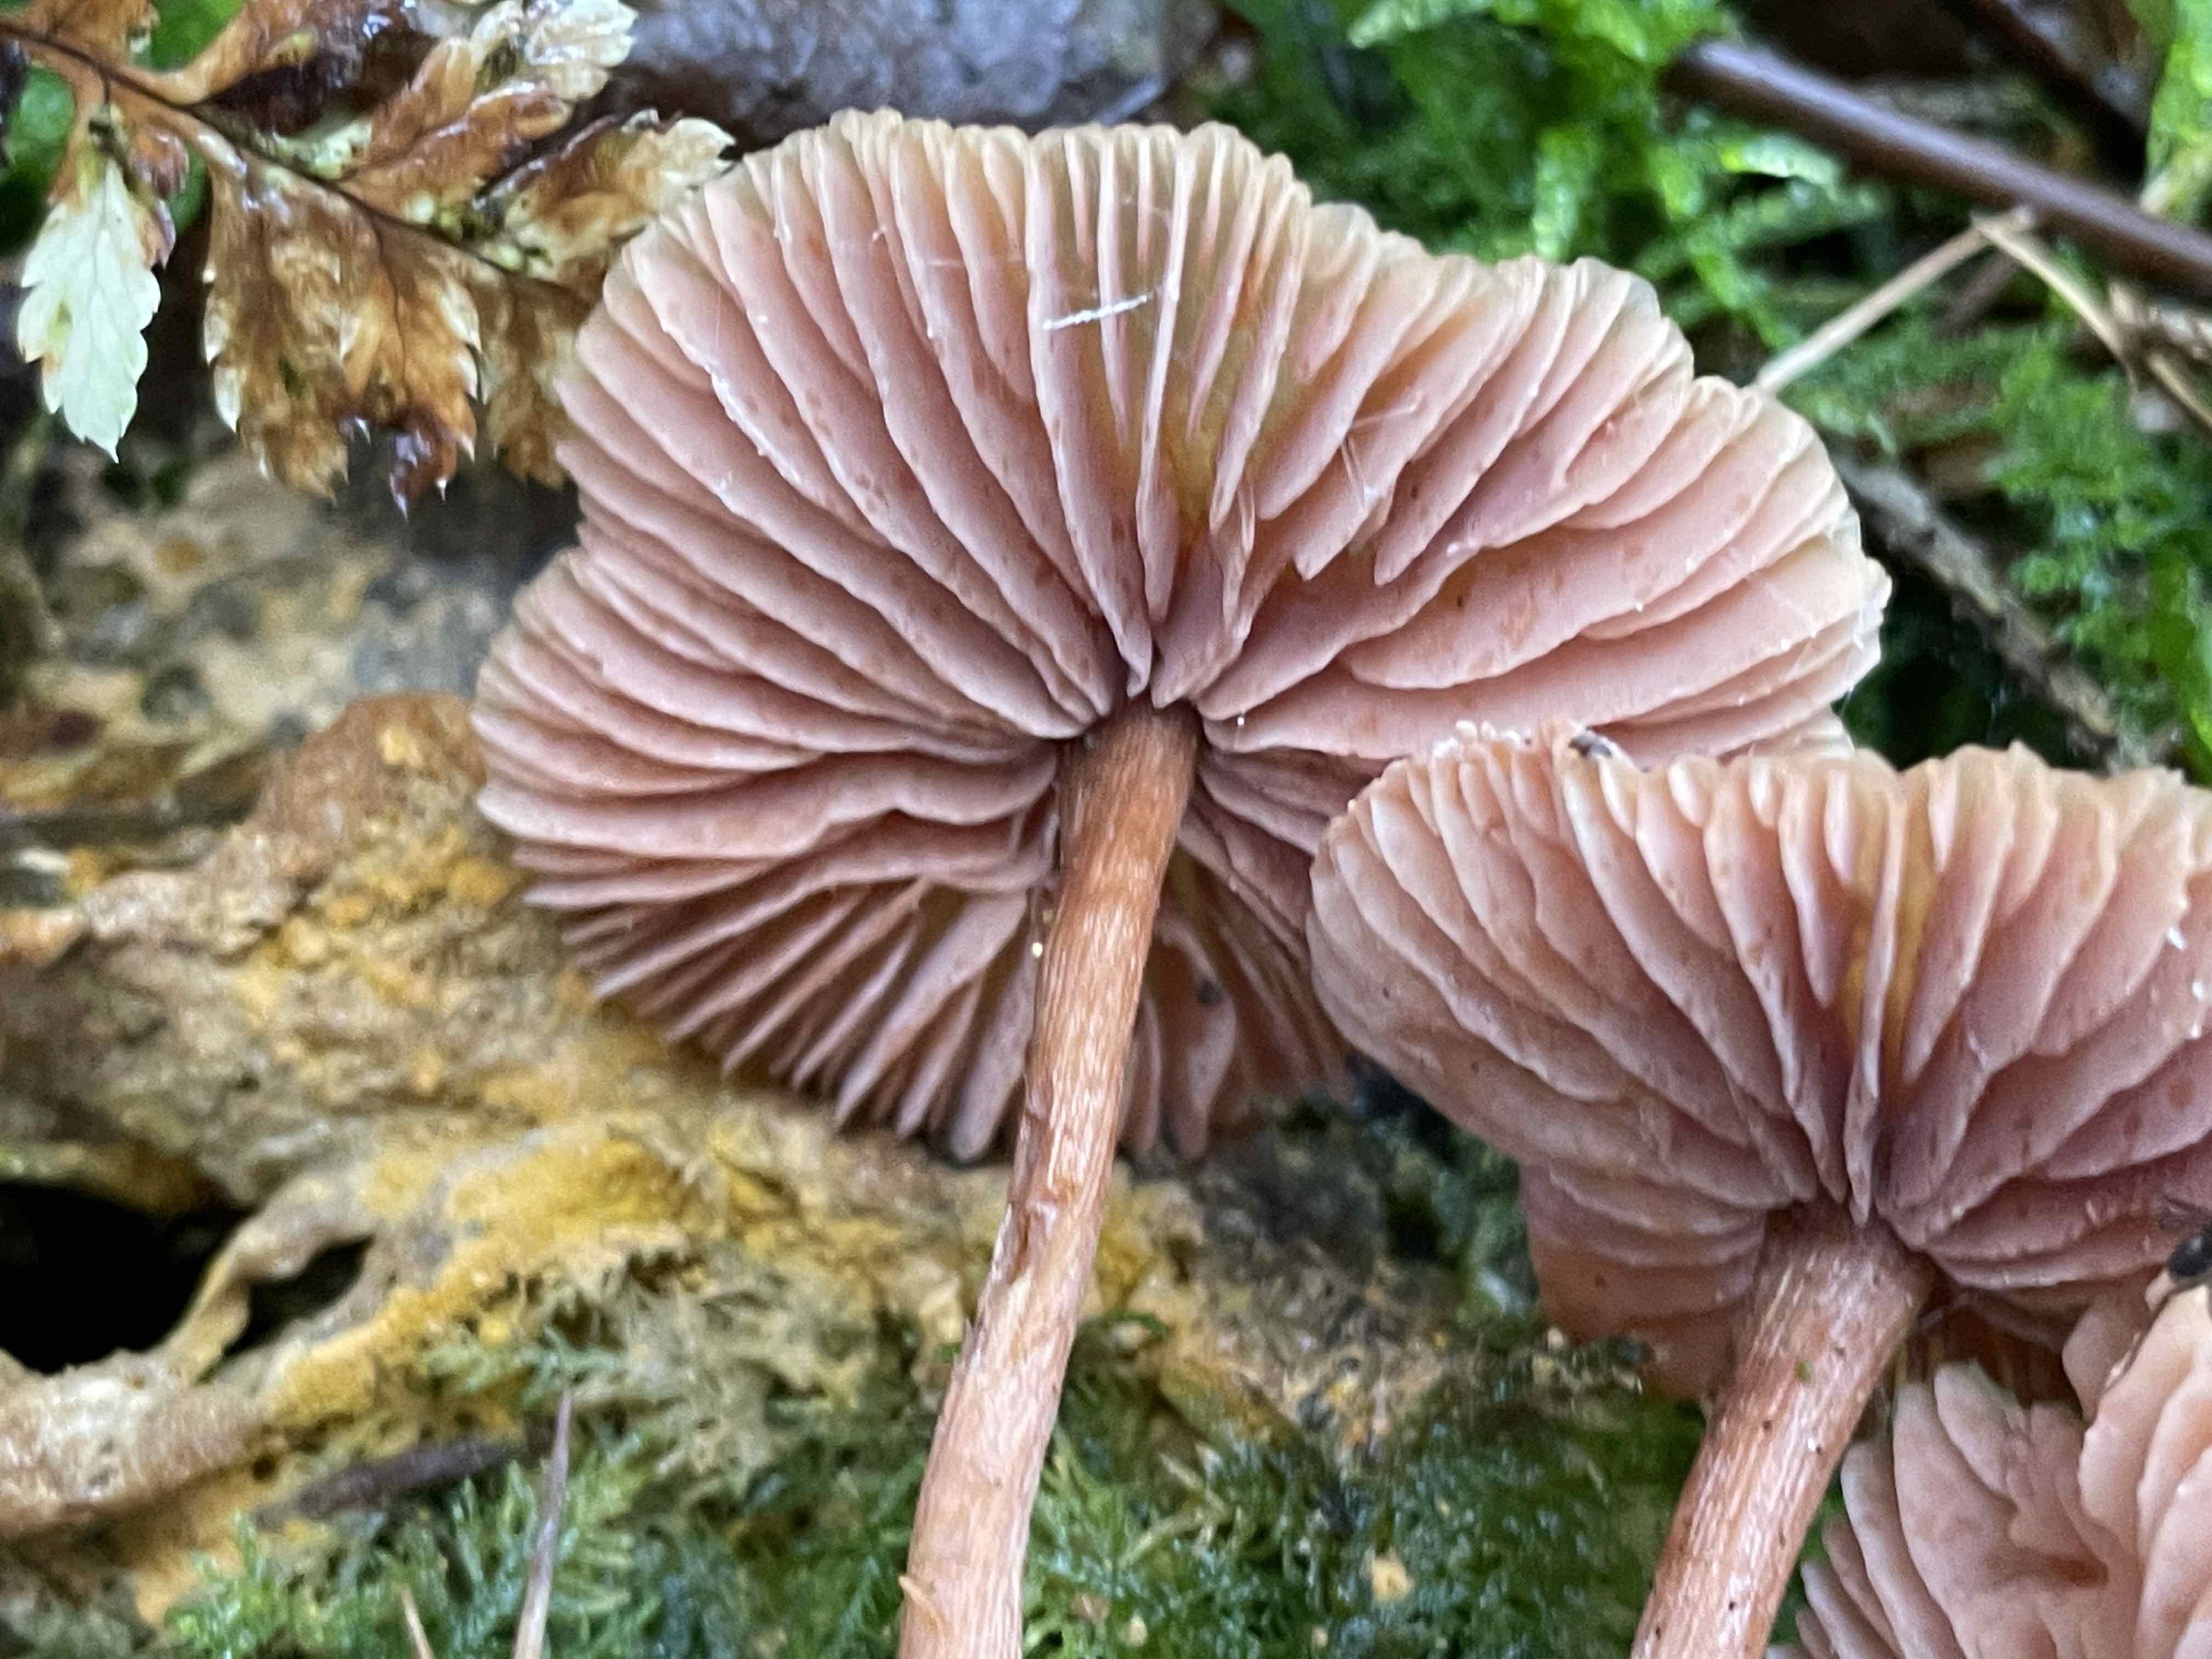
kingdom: Fungi
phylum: Basidiomycota
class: Agaricomycetes
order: Agaricales
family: Hydnangiaceae
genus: Laccaria
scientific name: Laccaria proxima
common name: stor ametysthat
